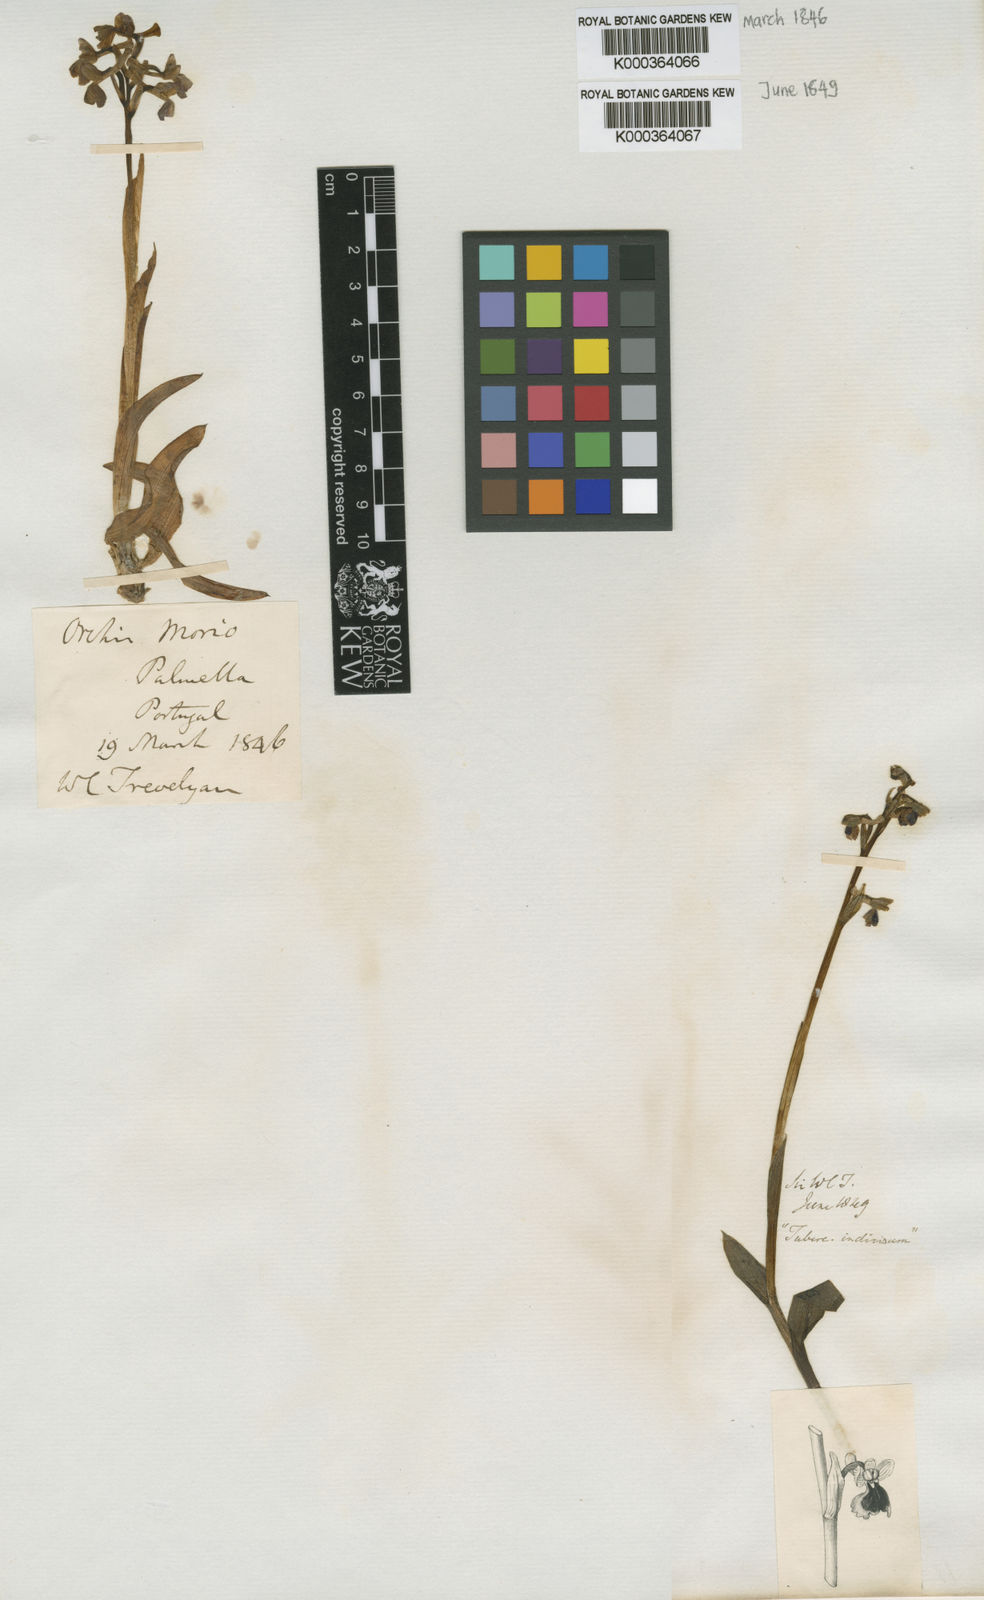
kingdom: Plantae
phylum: Tracheophyta
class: Liliopsida
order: Asparagales
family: Orchidaceae
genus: Anacamptis
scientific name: Anacamptis morio
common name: Green-winged orchid
